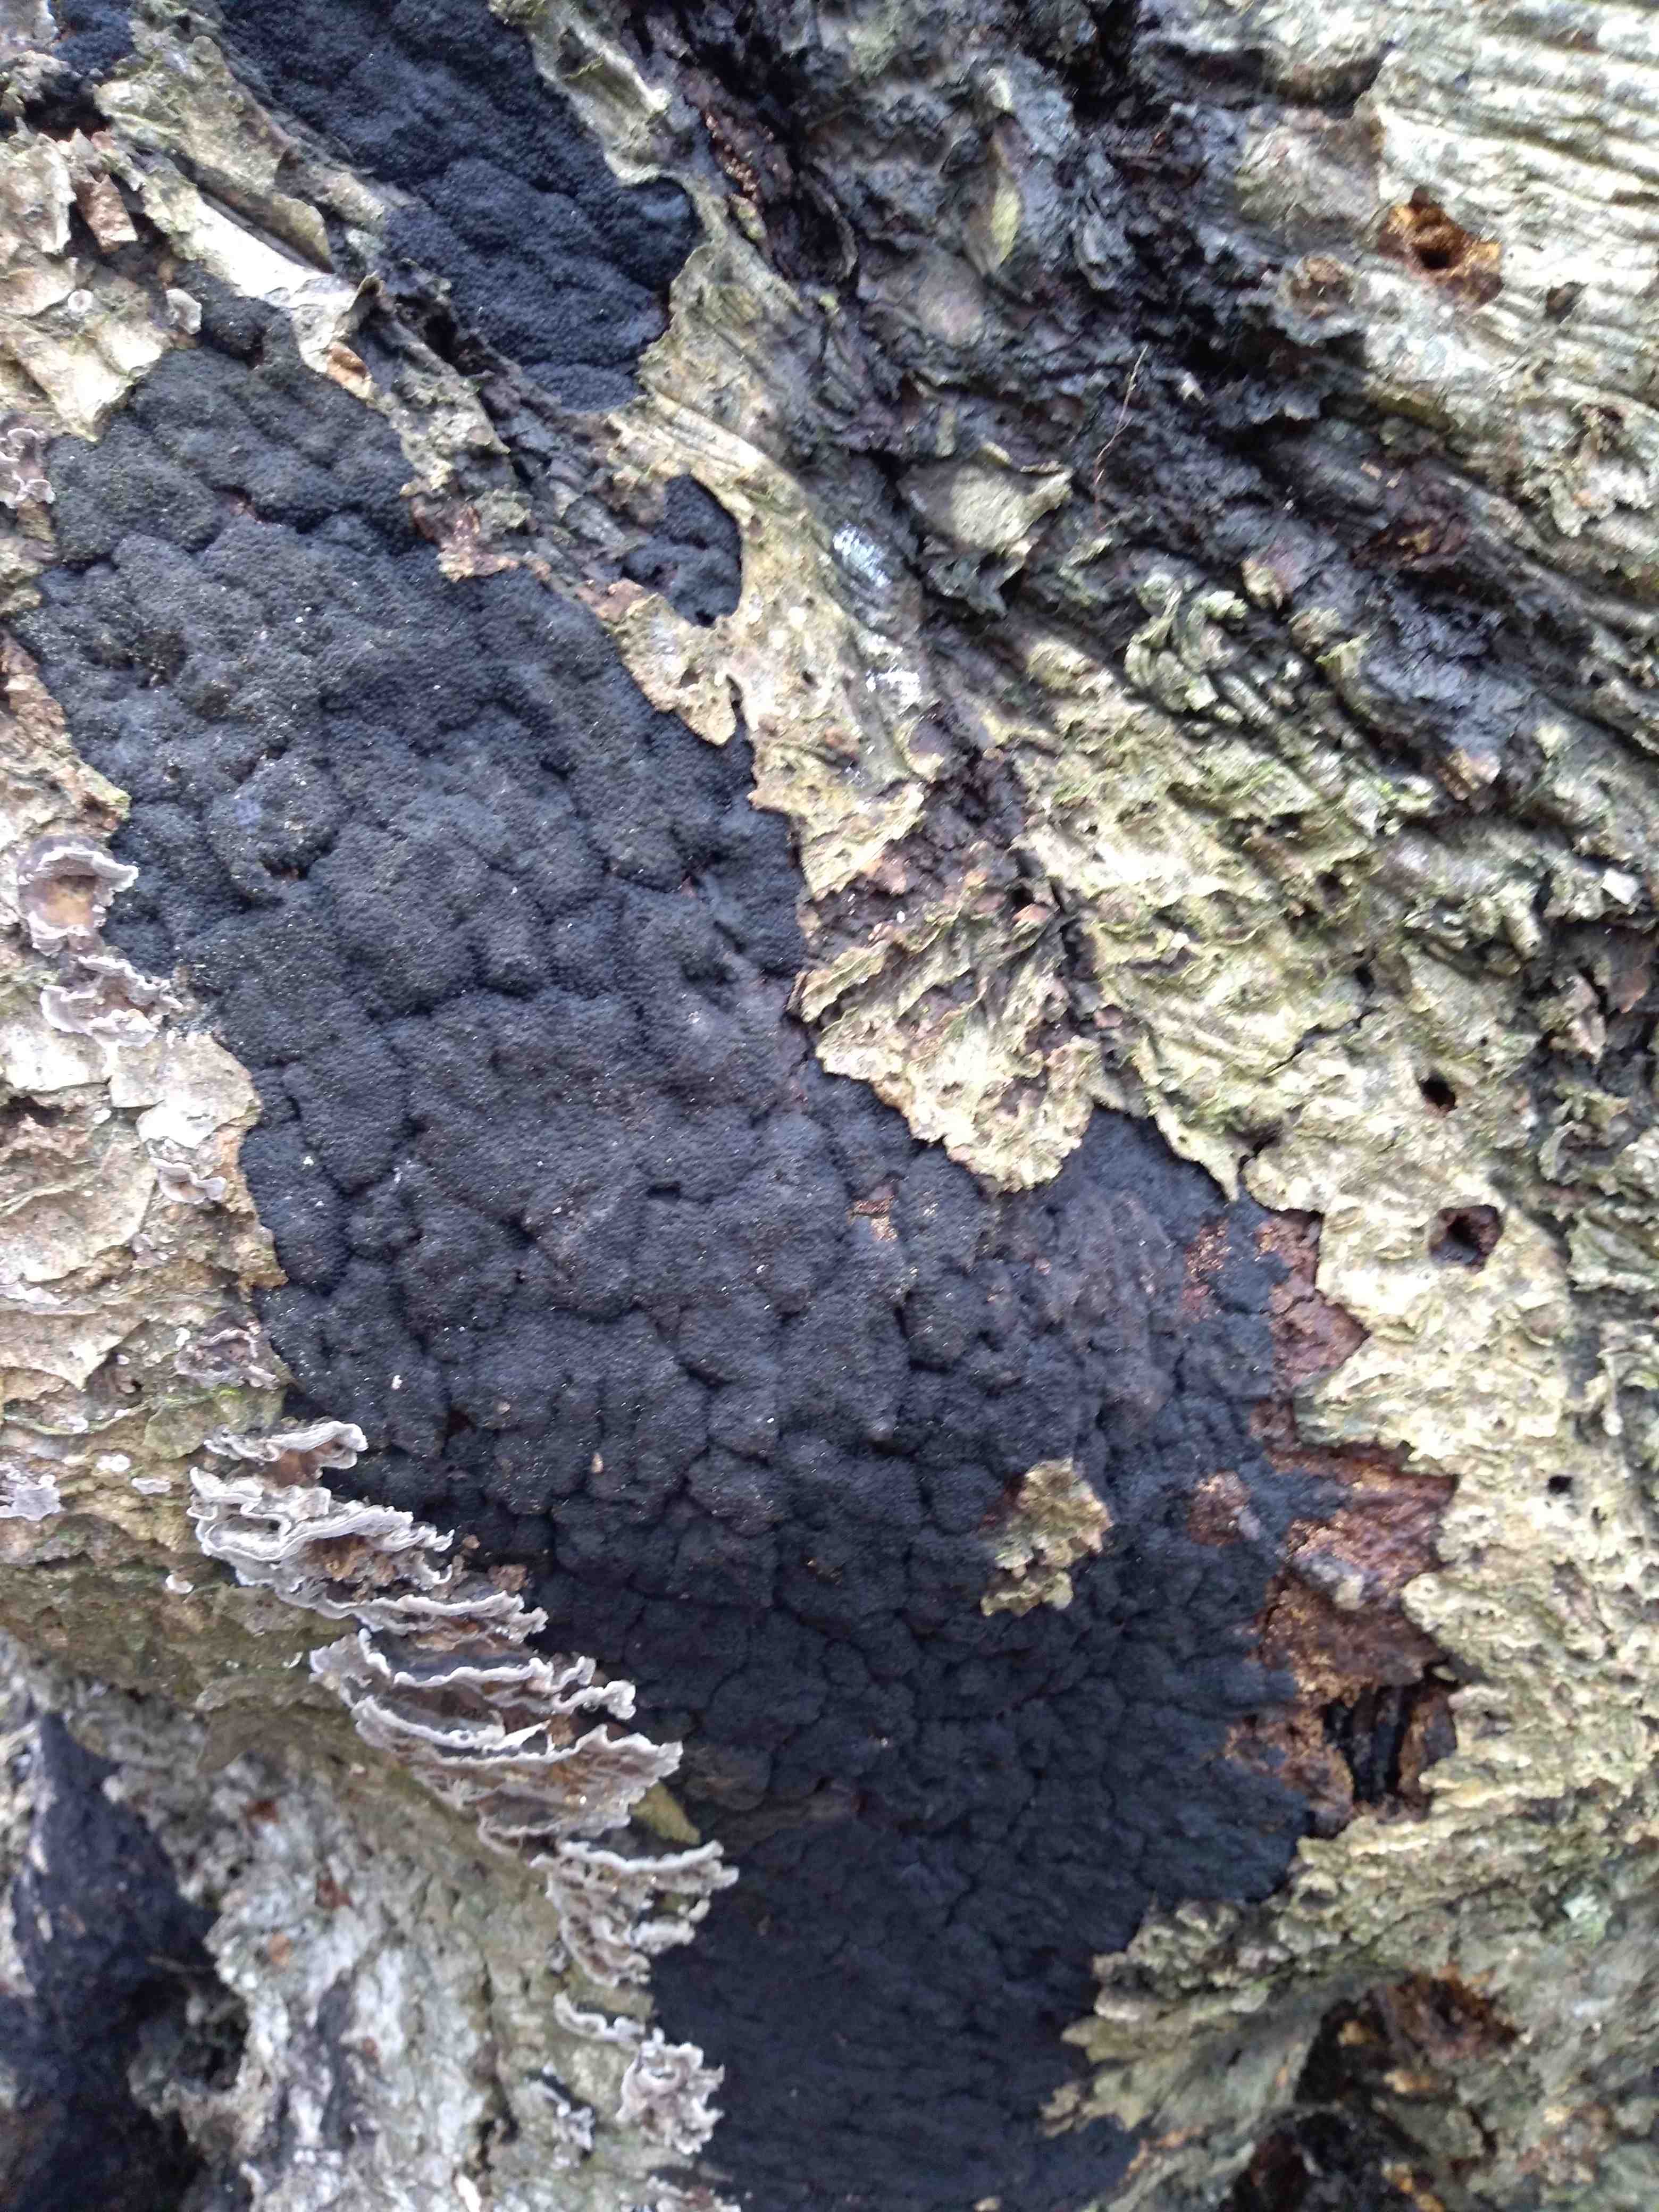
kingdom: Fungi
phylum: Ascomycota
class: Sordariomycetes
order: Xylariales
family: Diatrypaceae
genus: Eutypa
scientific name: Eutypa spinosa
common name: grov kulskorpe
